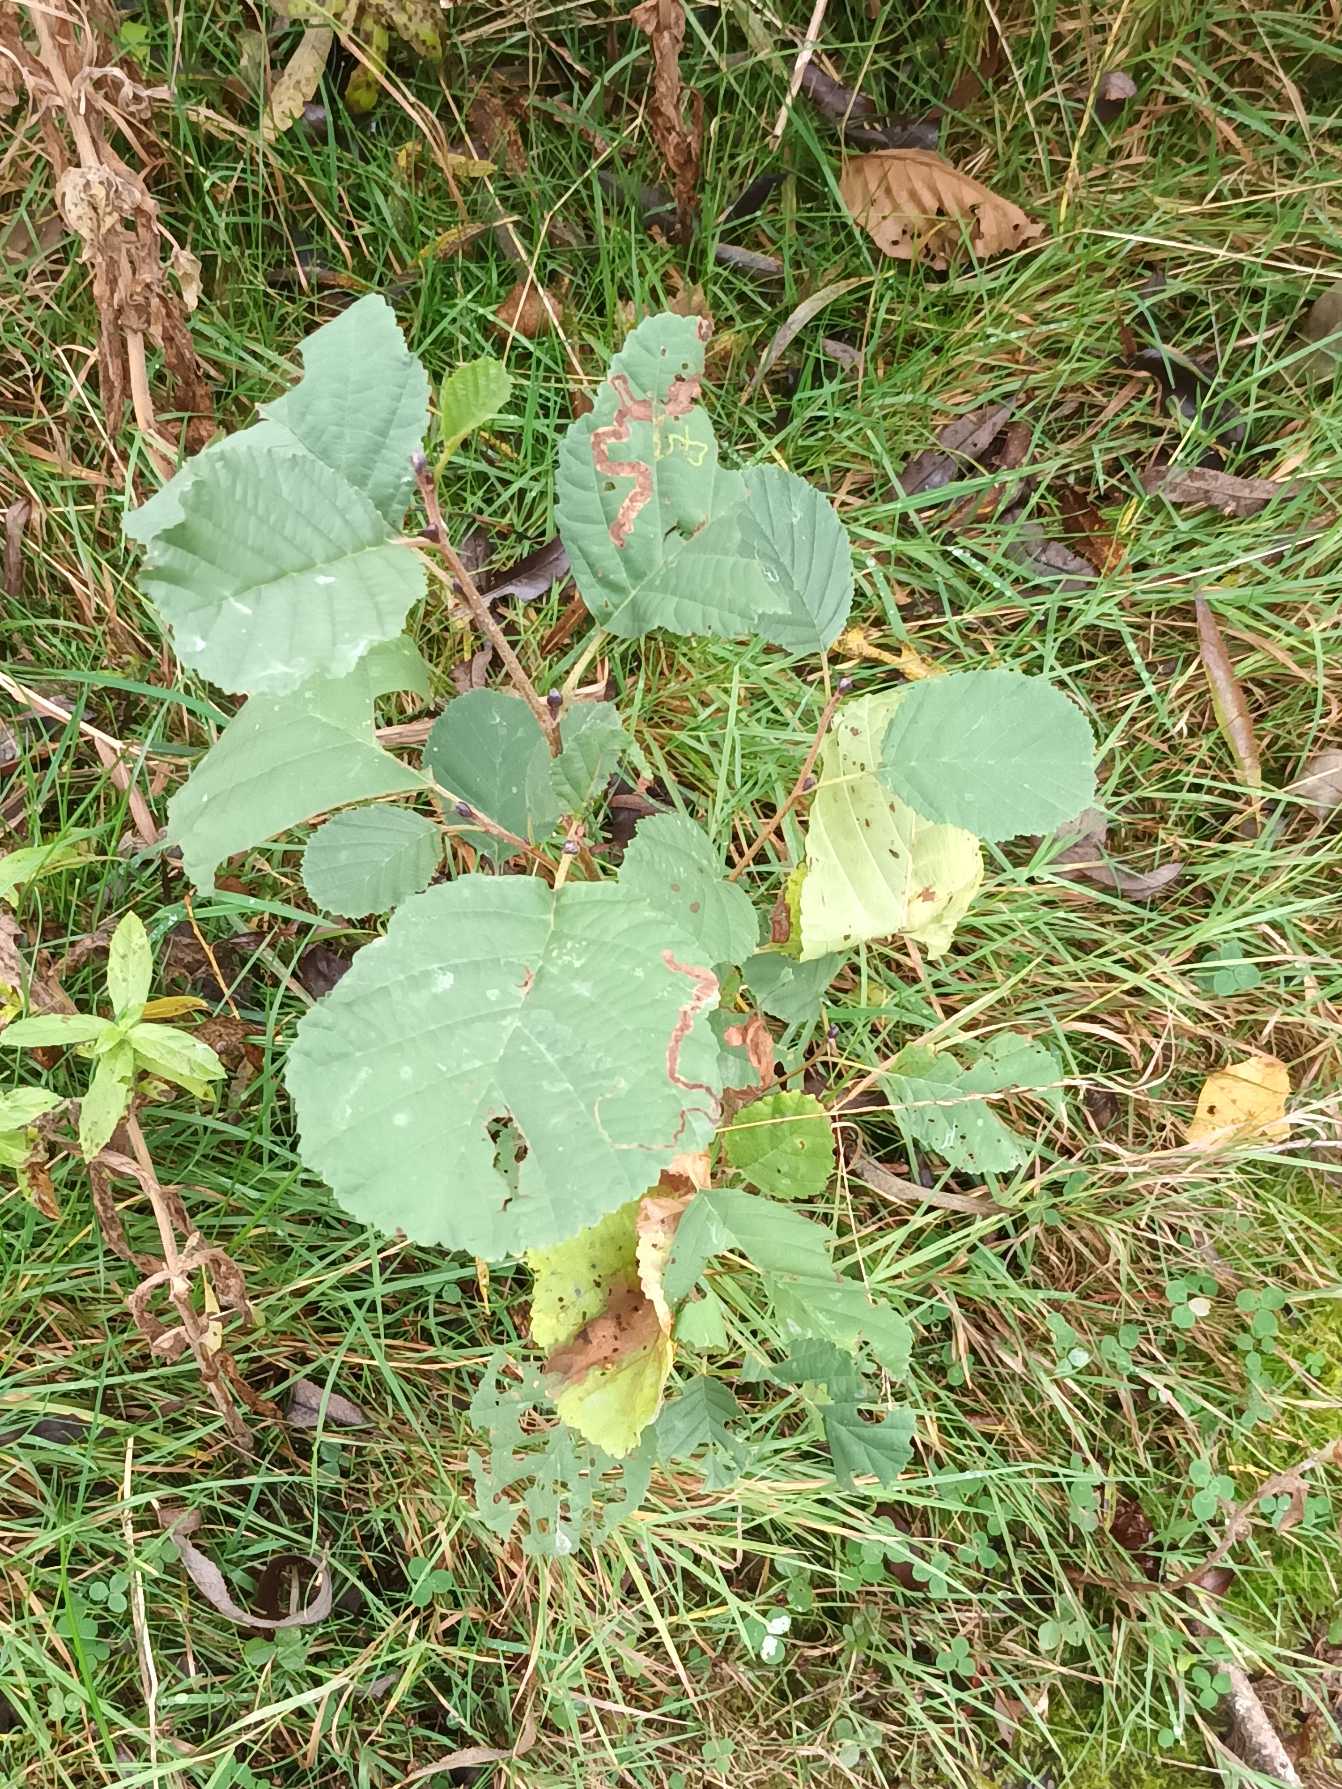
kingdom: Plantae
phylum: Tracheophyta
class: Magnoliopsida
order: Fagales
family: Betulaceae
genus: Alnus
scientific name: Alnus glutinosa
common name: Rød-el
